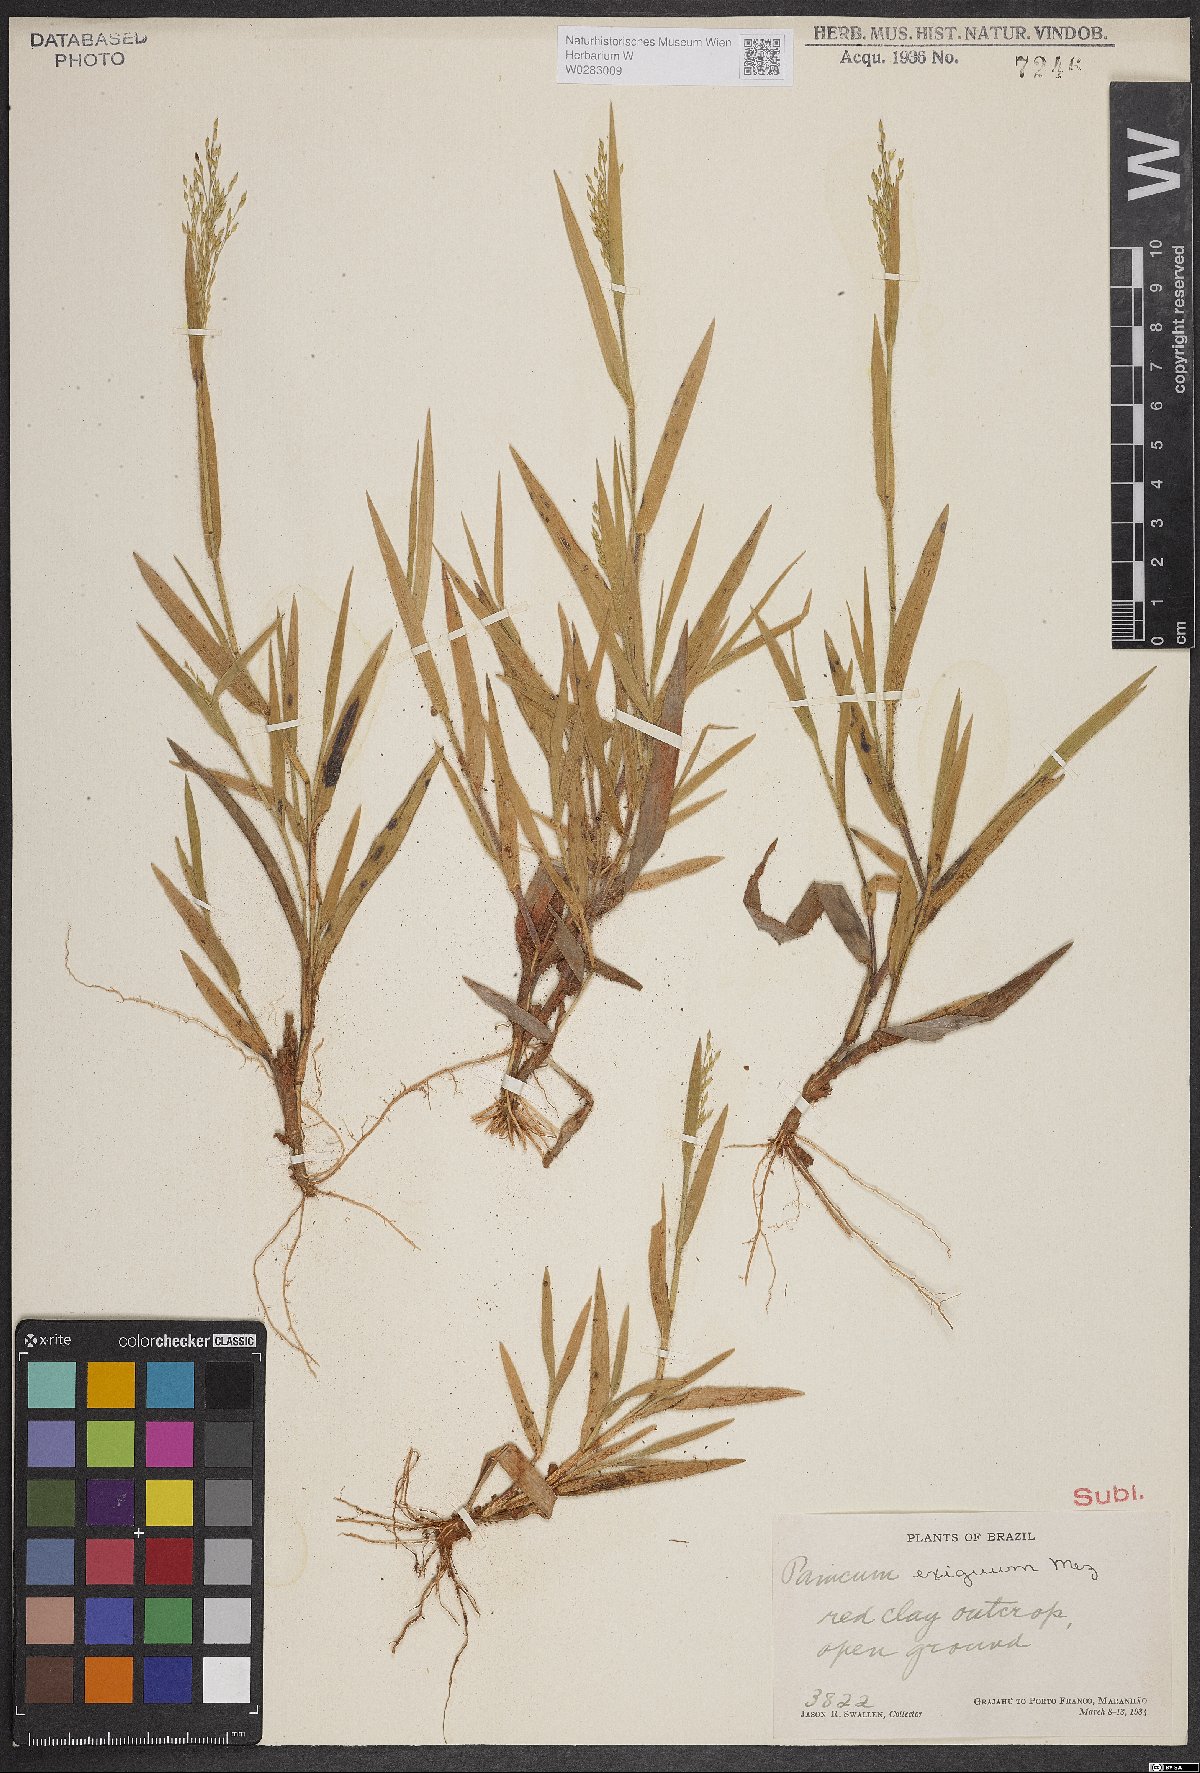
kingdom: Plantae
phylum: Tracheophyta
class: Liliopsida
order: Poales
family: Poaceae
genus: Panicum
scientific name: Panicum exiguum
